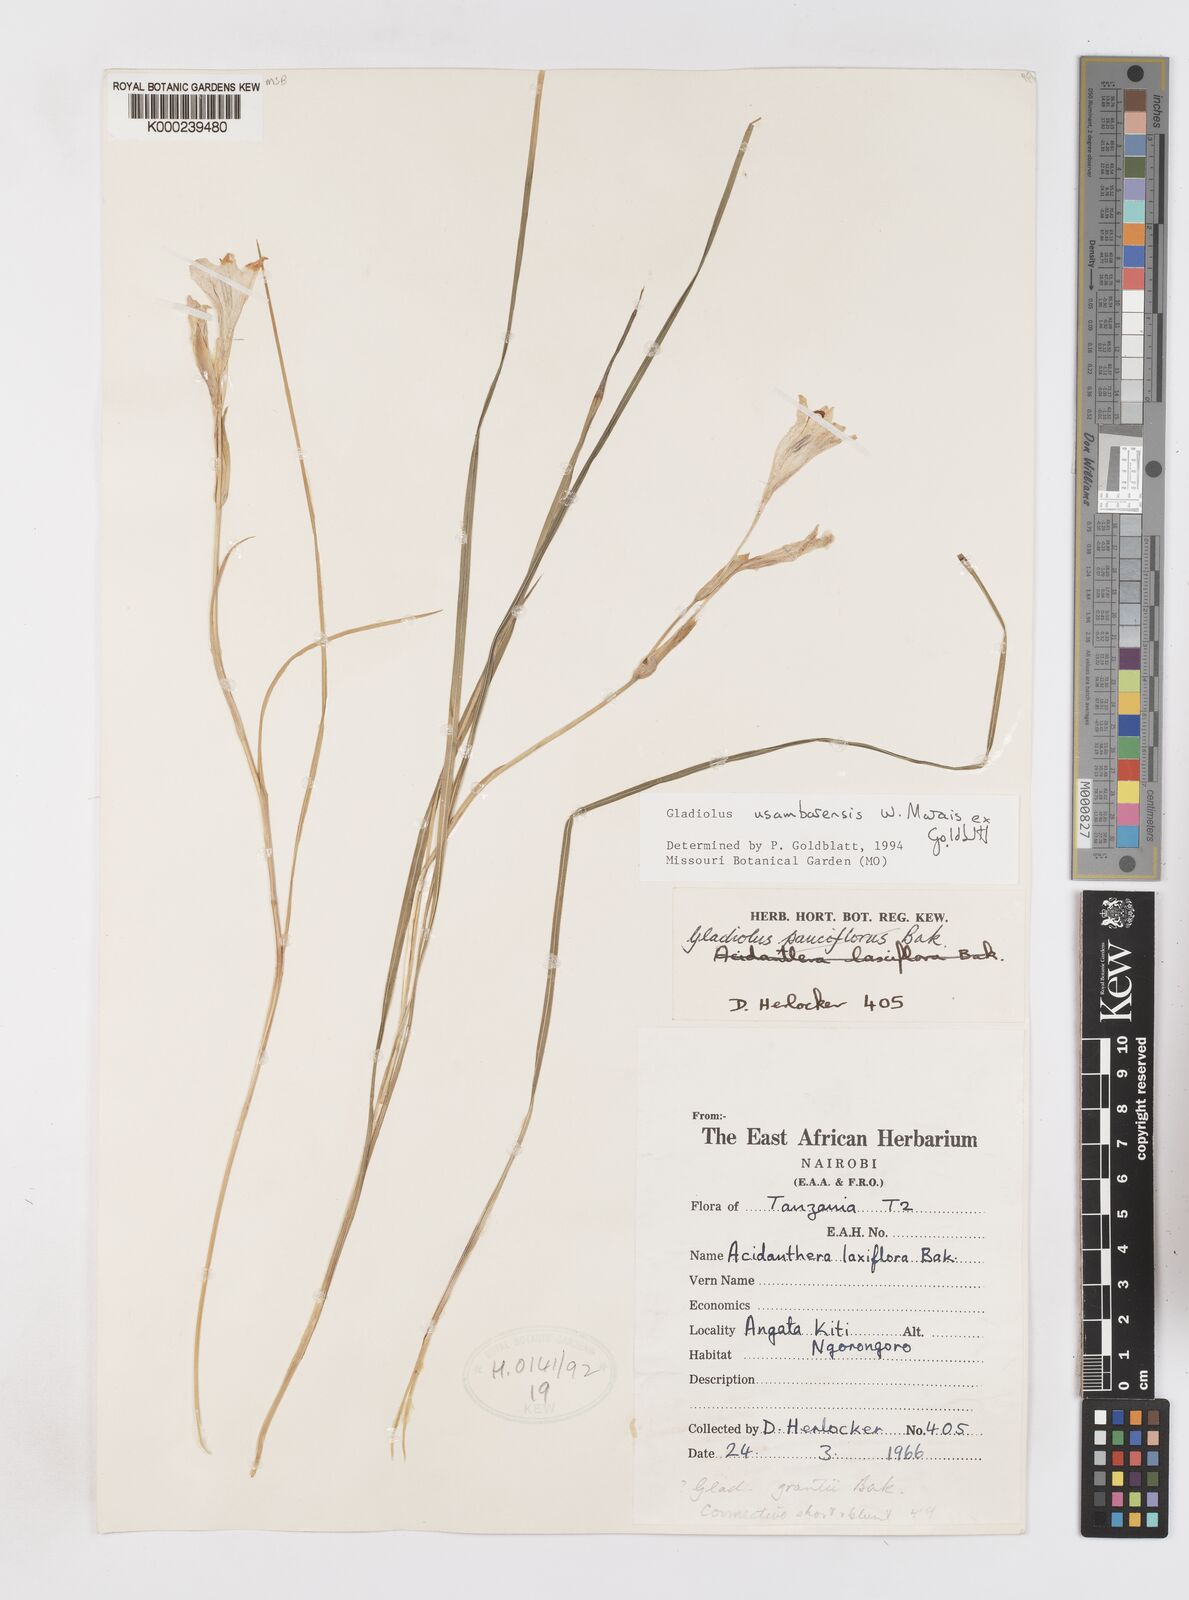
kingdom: Plantae
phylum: Tracheophyta
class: Liliopsida
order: Asparagales
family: Iridaceae
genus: Gladiolus
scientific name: Gladiolus usambarensis
